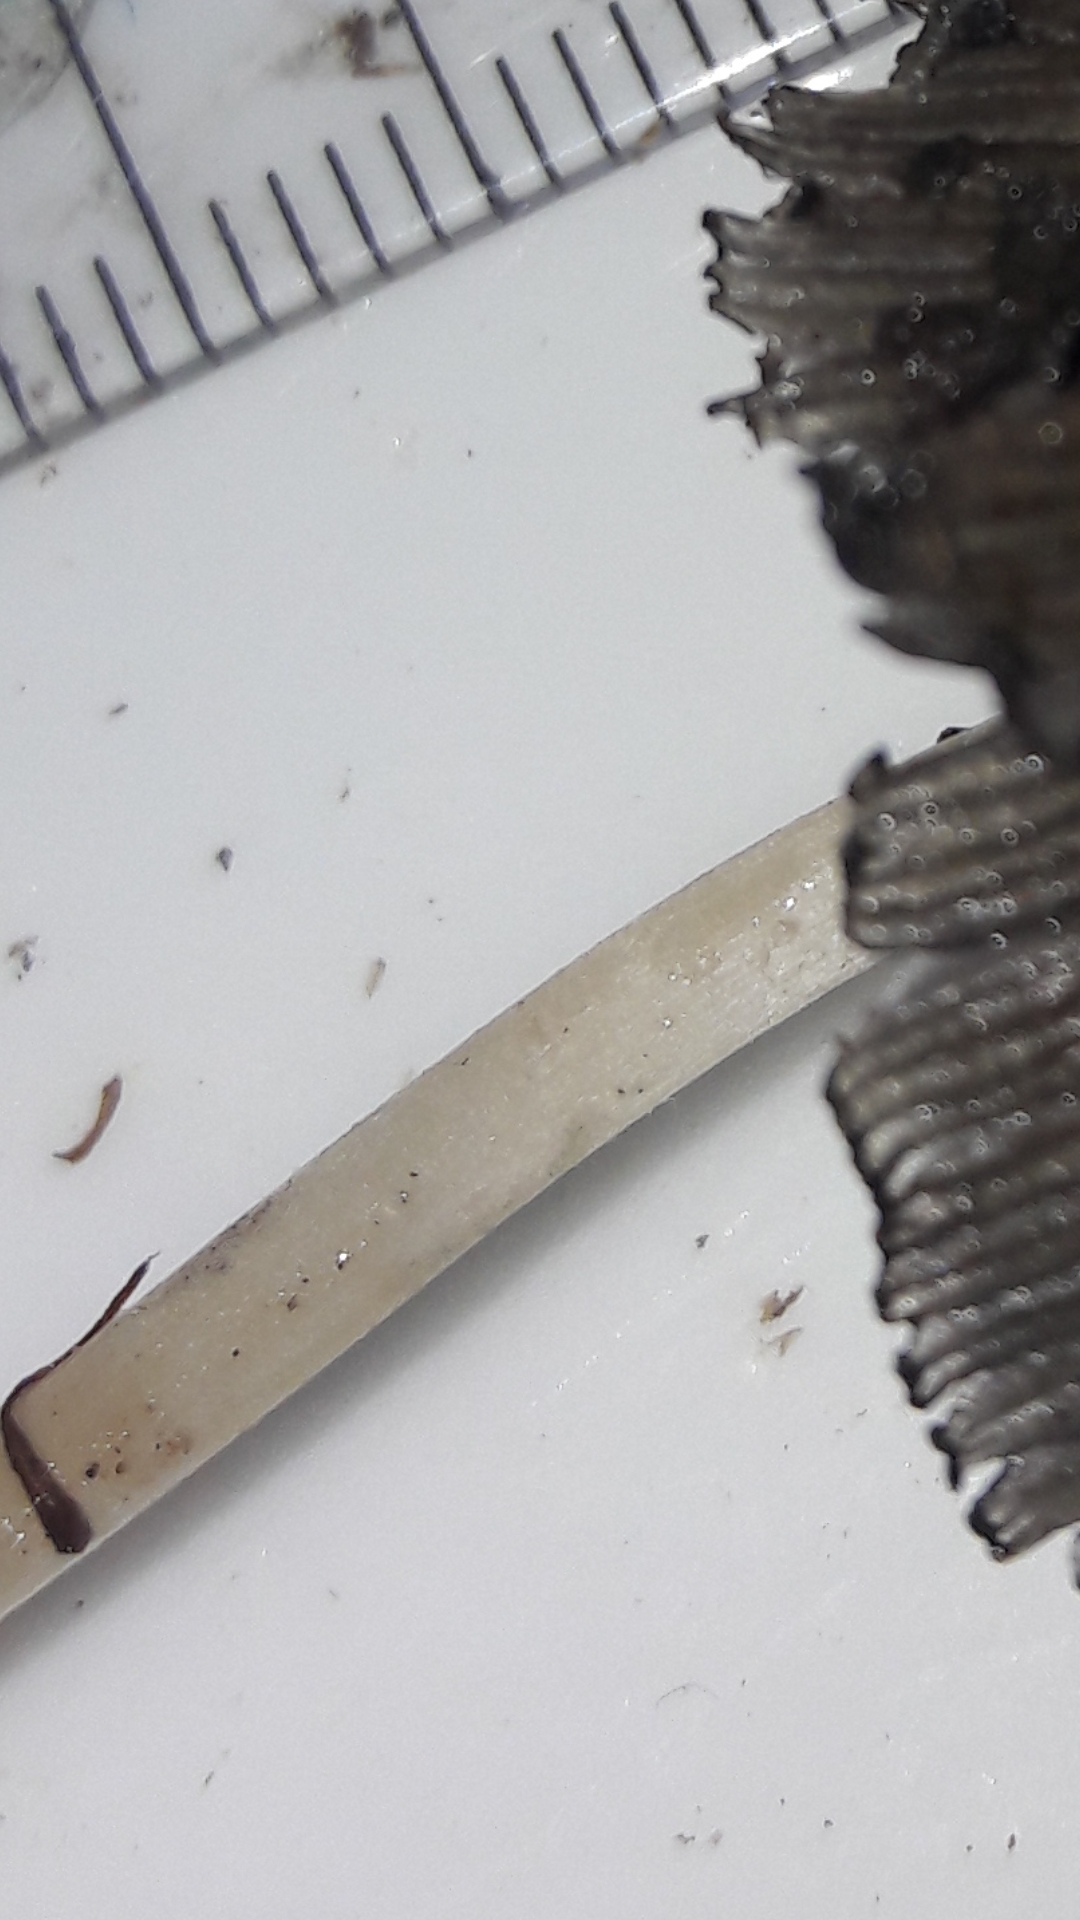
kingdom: Fungi
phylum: Basidiomycota
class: Agaricomycetes
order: Agaricales
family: Psathyrellaceae
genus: Coprinellus
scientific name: Coprinellus micaceus
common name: glimmer-blækhat
